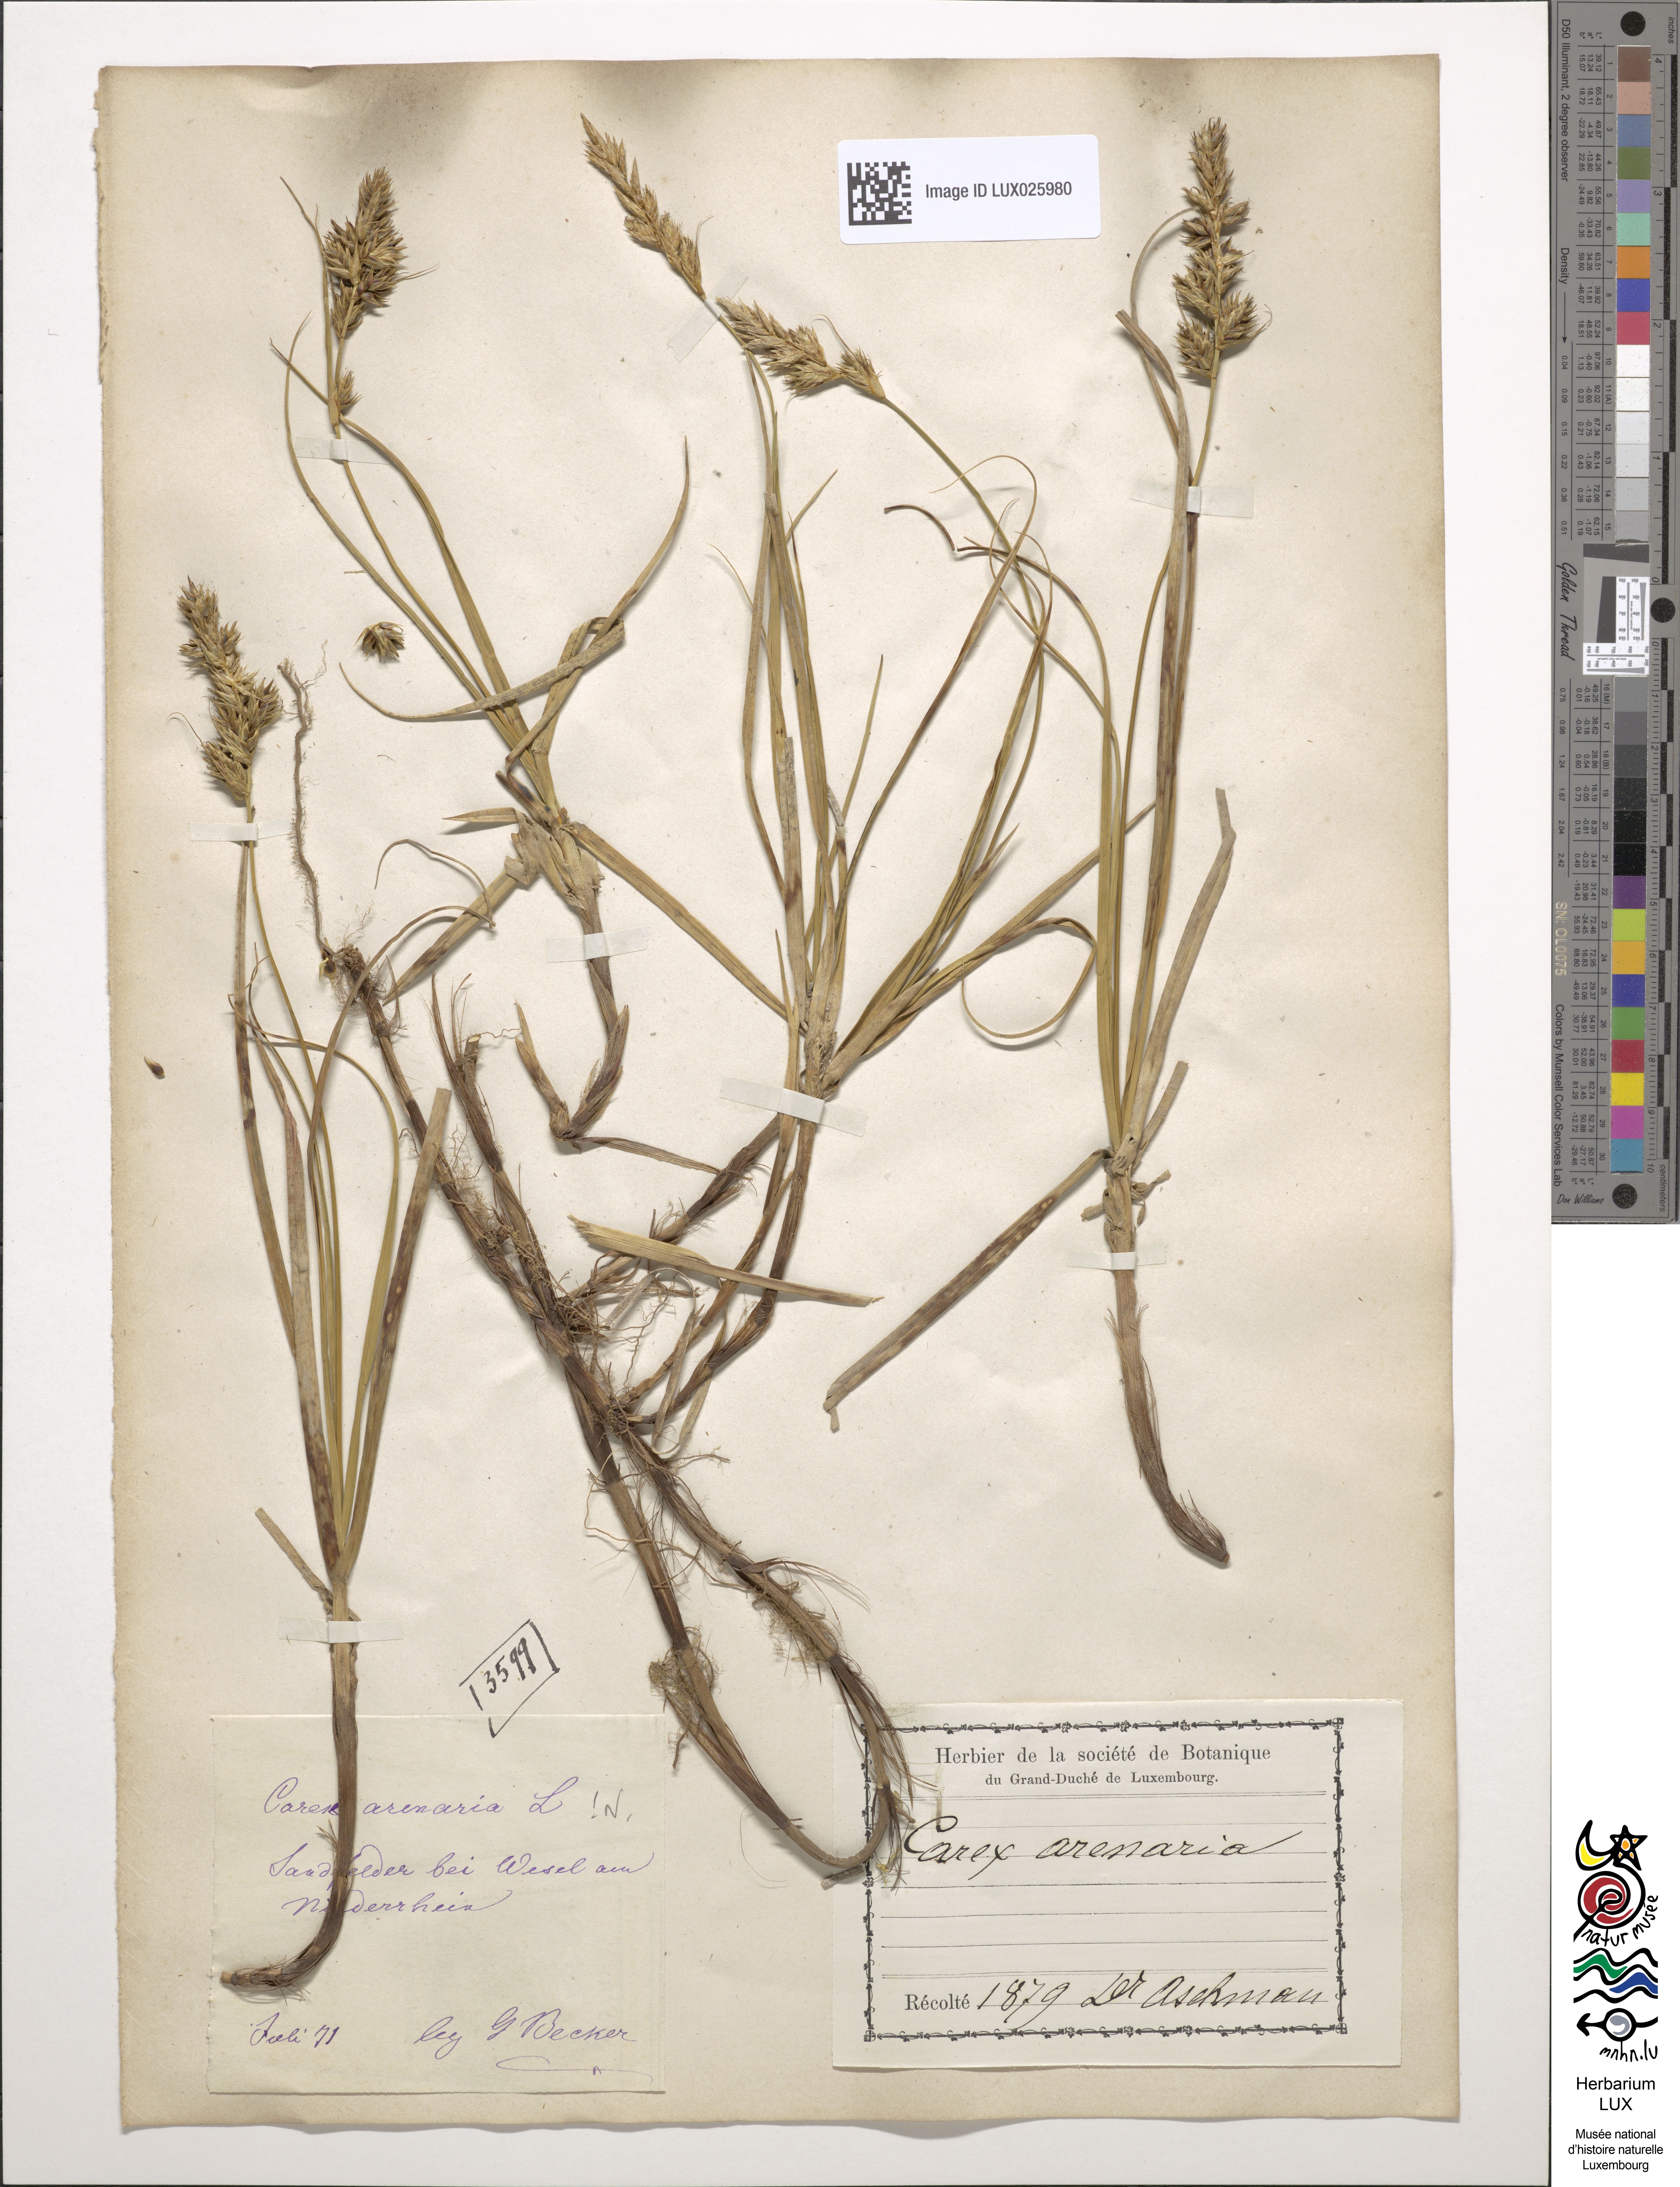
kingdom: Plantae
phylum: Tracheophyta
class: Liliopsida
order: Poales
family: Cyperaceae
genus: Carex
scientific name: Carex arenaria
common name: Sand sedge
